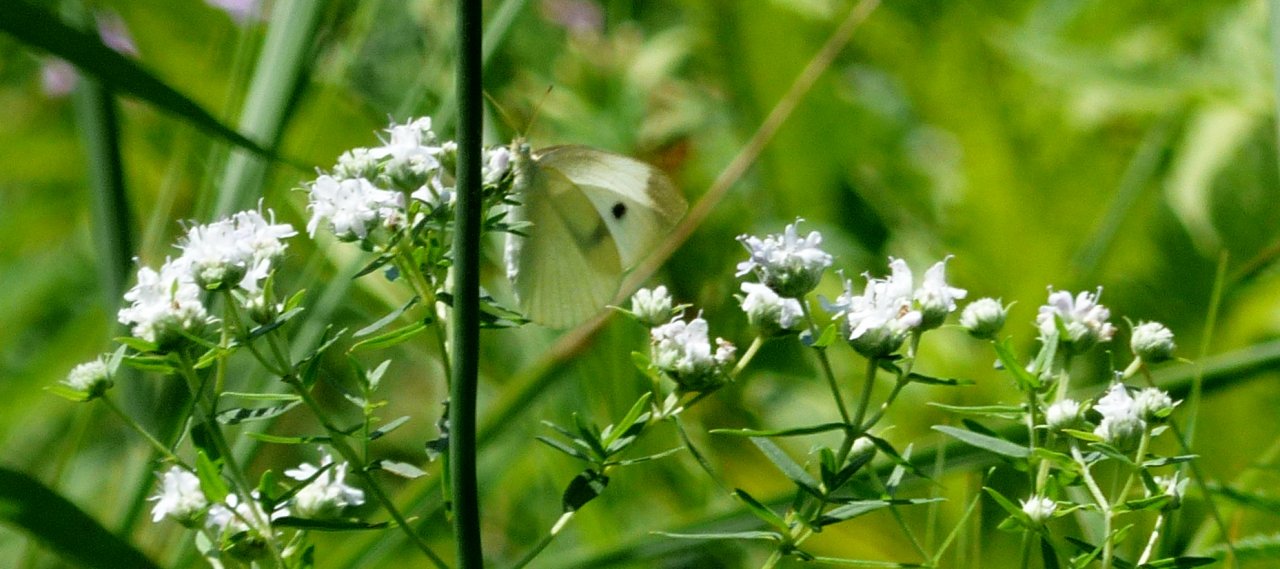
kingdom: Animalia
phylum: Arthropoda
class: Insecta
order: Lepidoptera
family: Pieridae
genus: Pieris
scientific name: Pieris rapae
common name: Cabbage White
